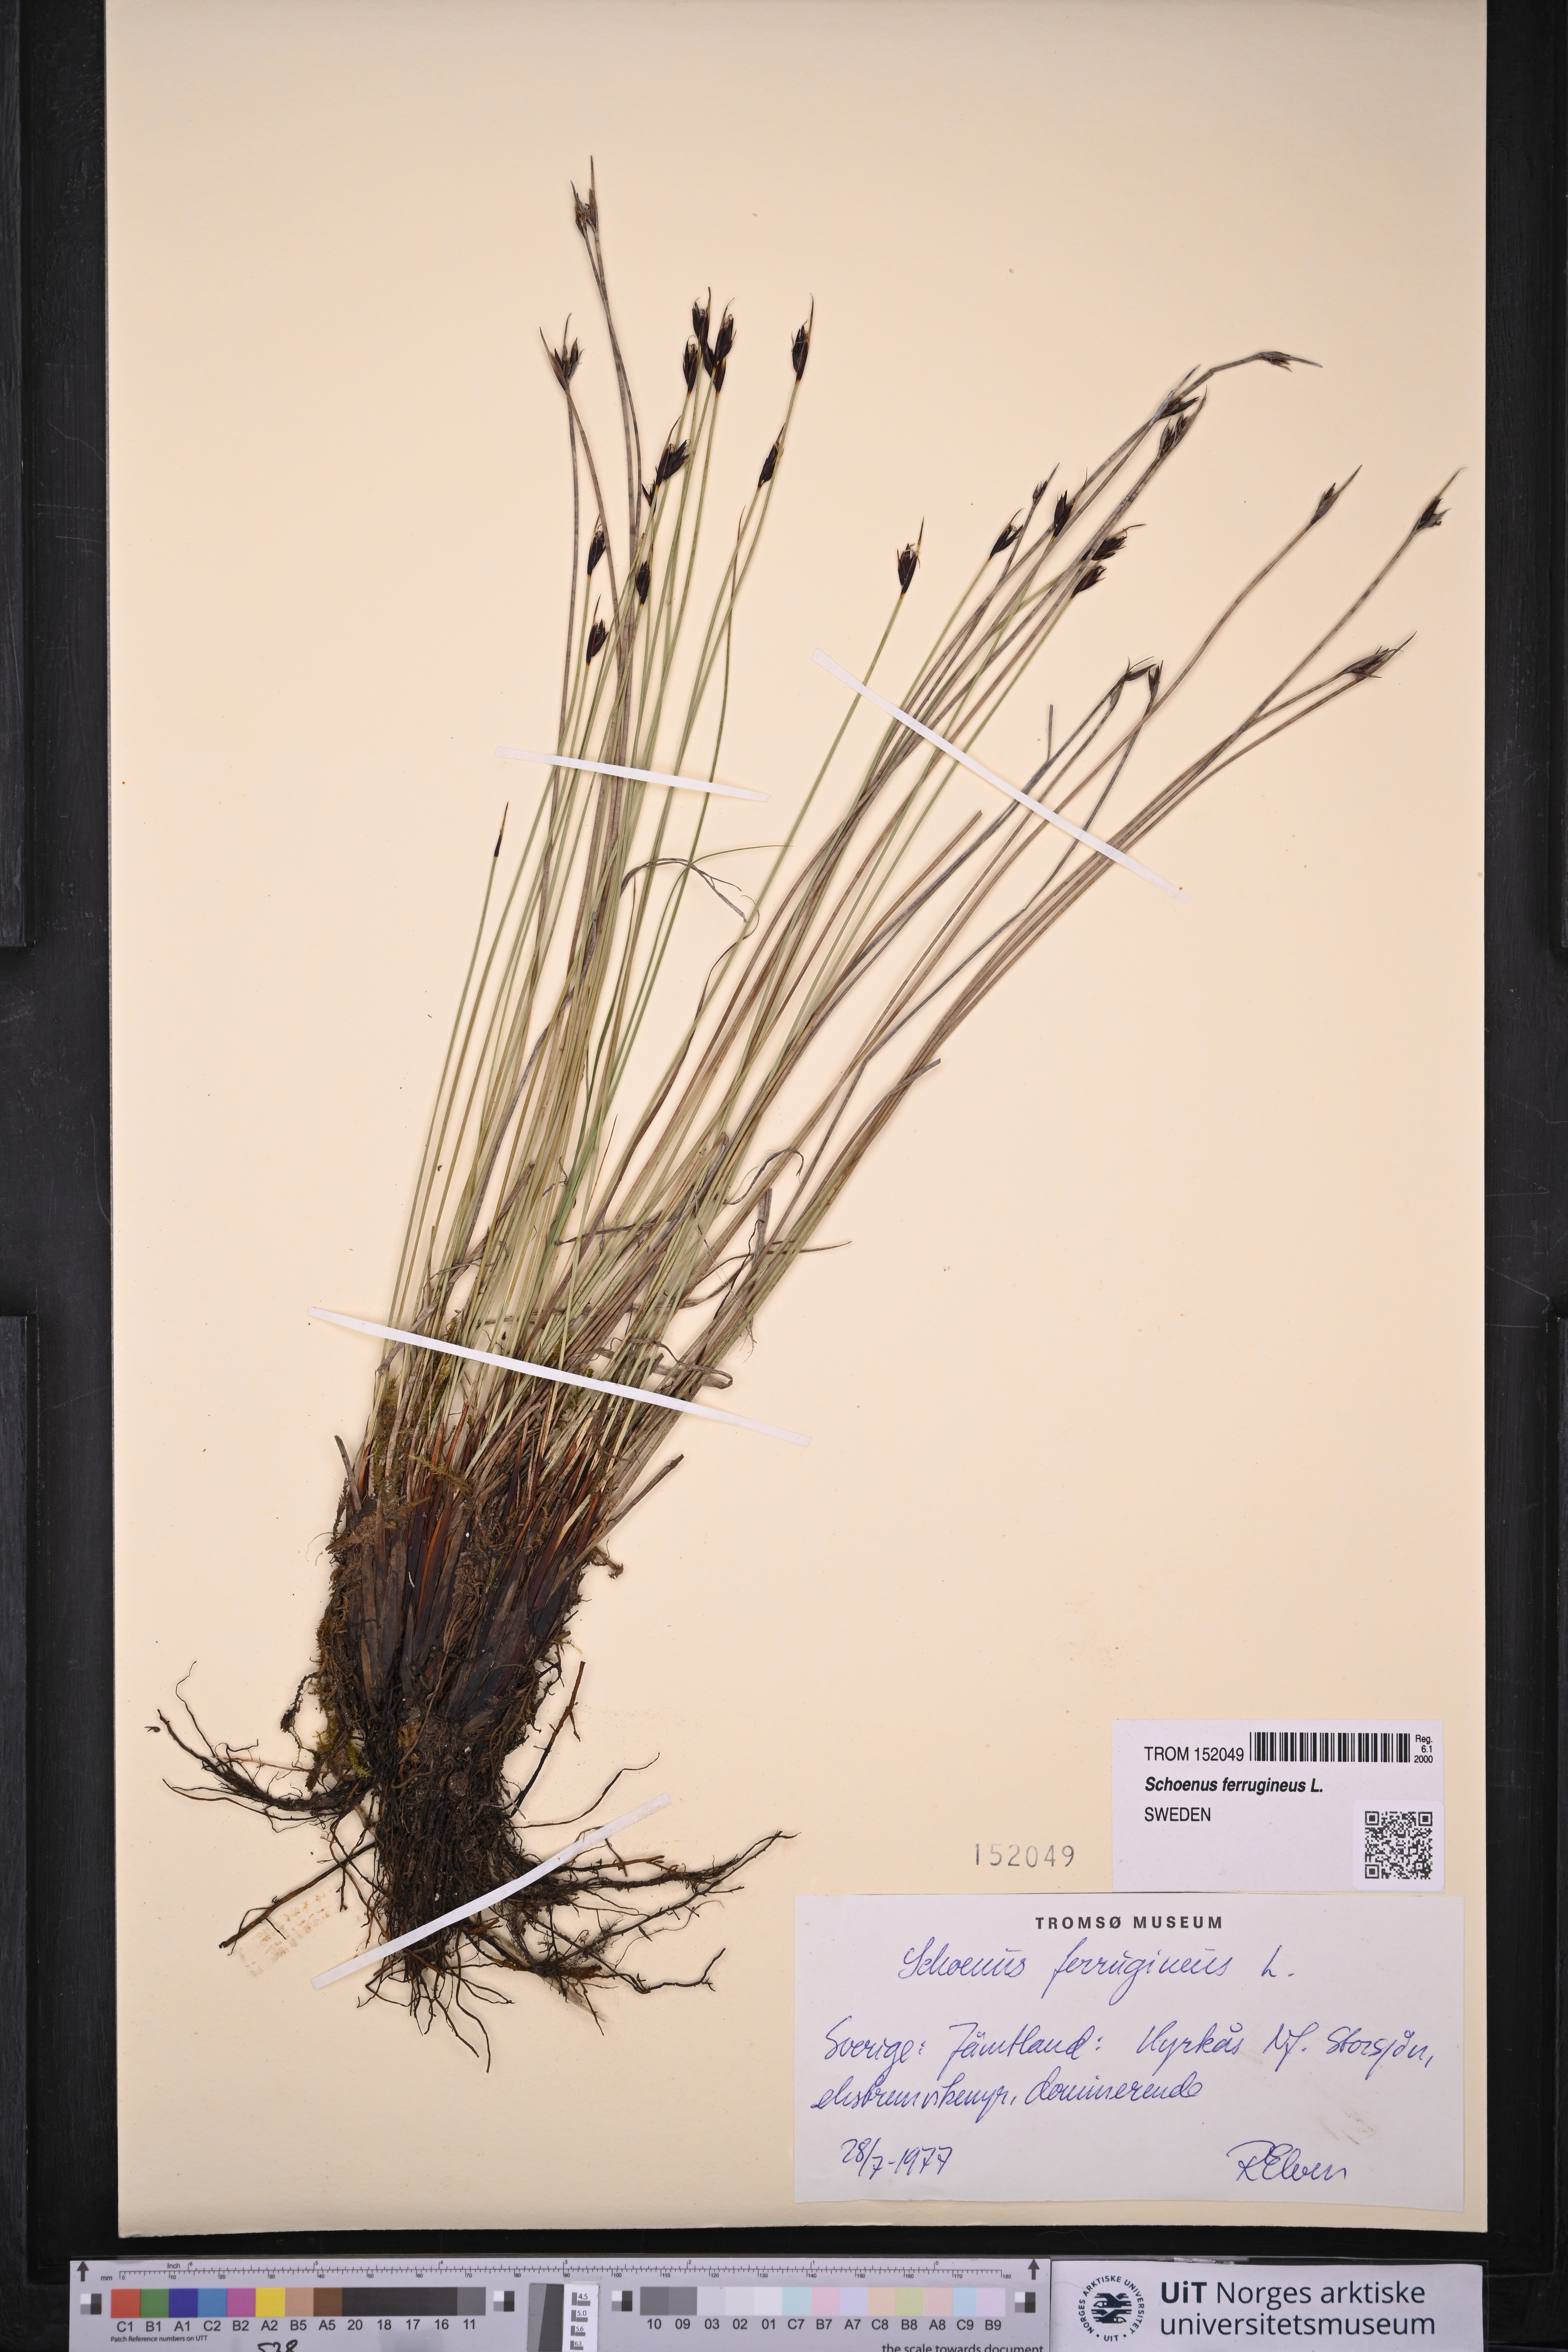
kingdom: Plantae
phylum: Tracheophyta
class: Liliopsida
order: Poales
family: Cyperaceae
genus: Schoenus
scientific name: Schoenus ferrugineus
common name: Brown bog-rush
